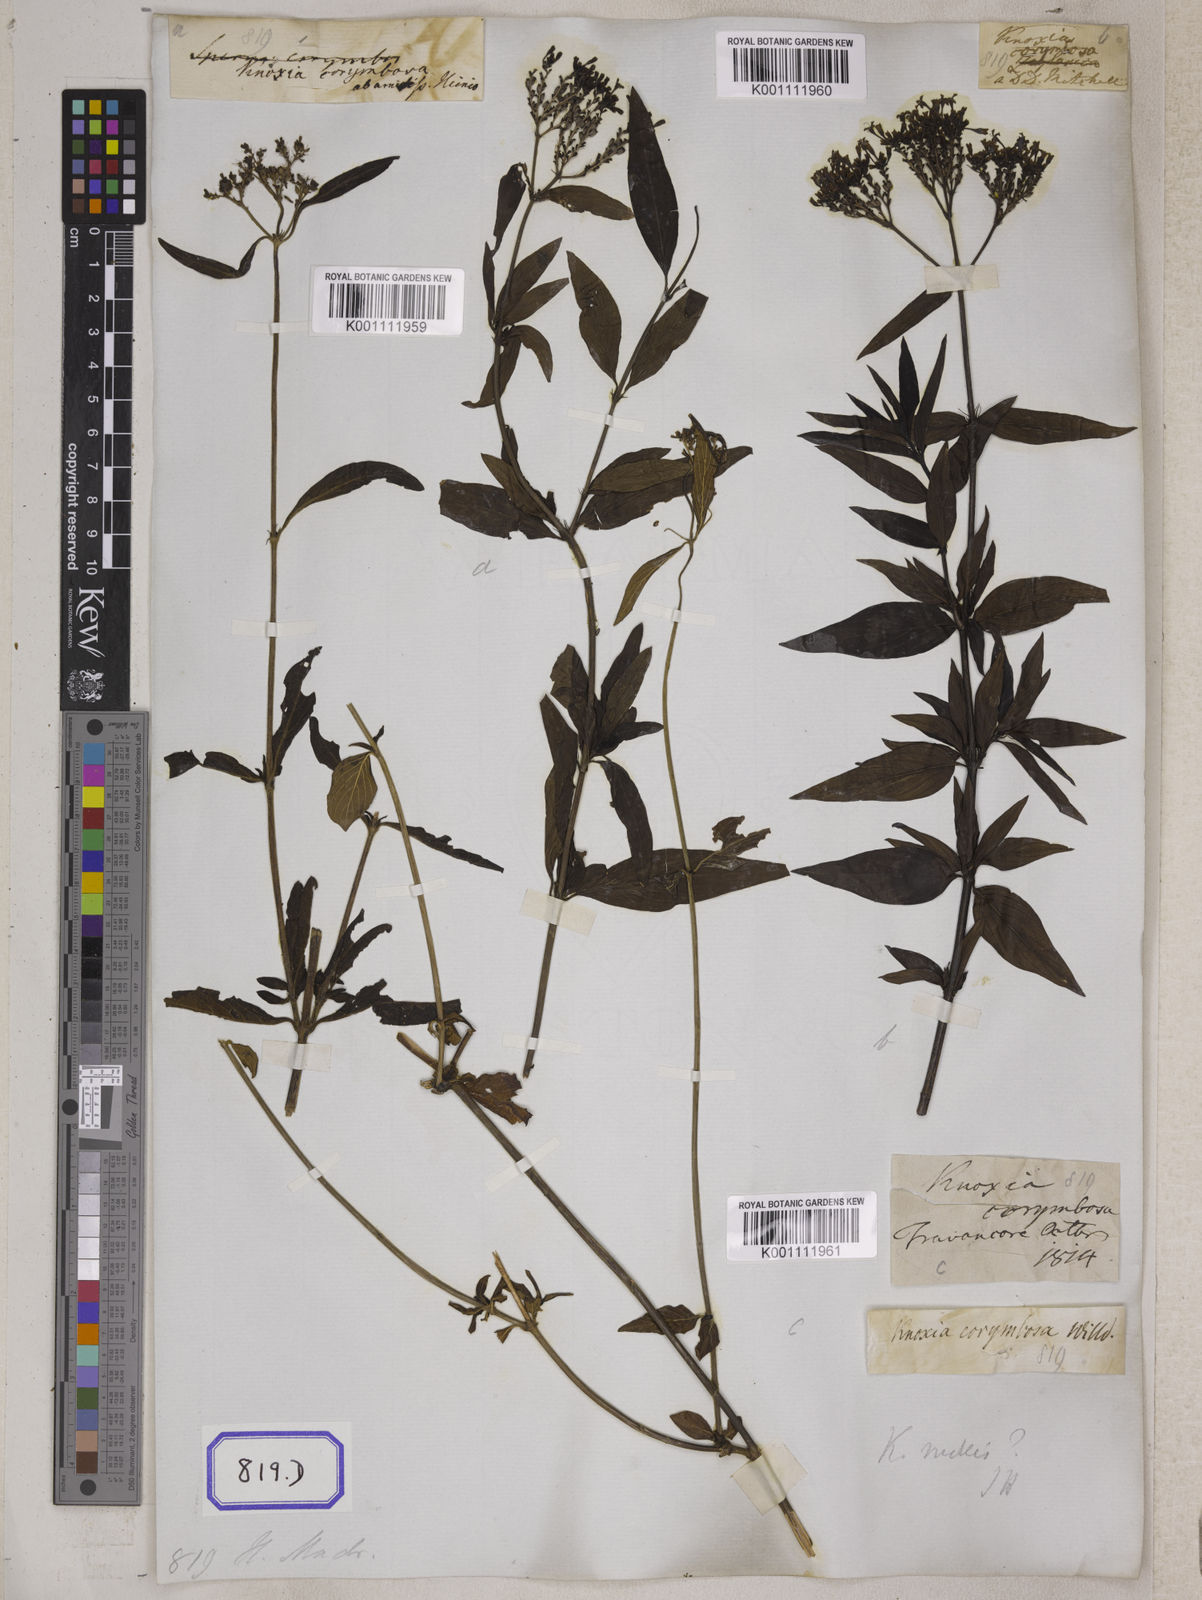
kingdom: Plantae
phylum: Tracheophyta
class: Magnoliopsida
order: Gentianales
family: Rubiaceae
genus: Knoxia
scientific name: Knoxia sumatrensis
